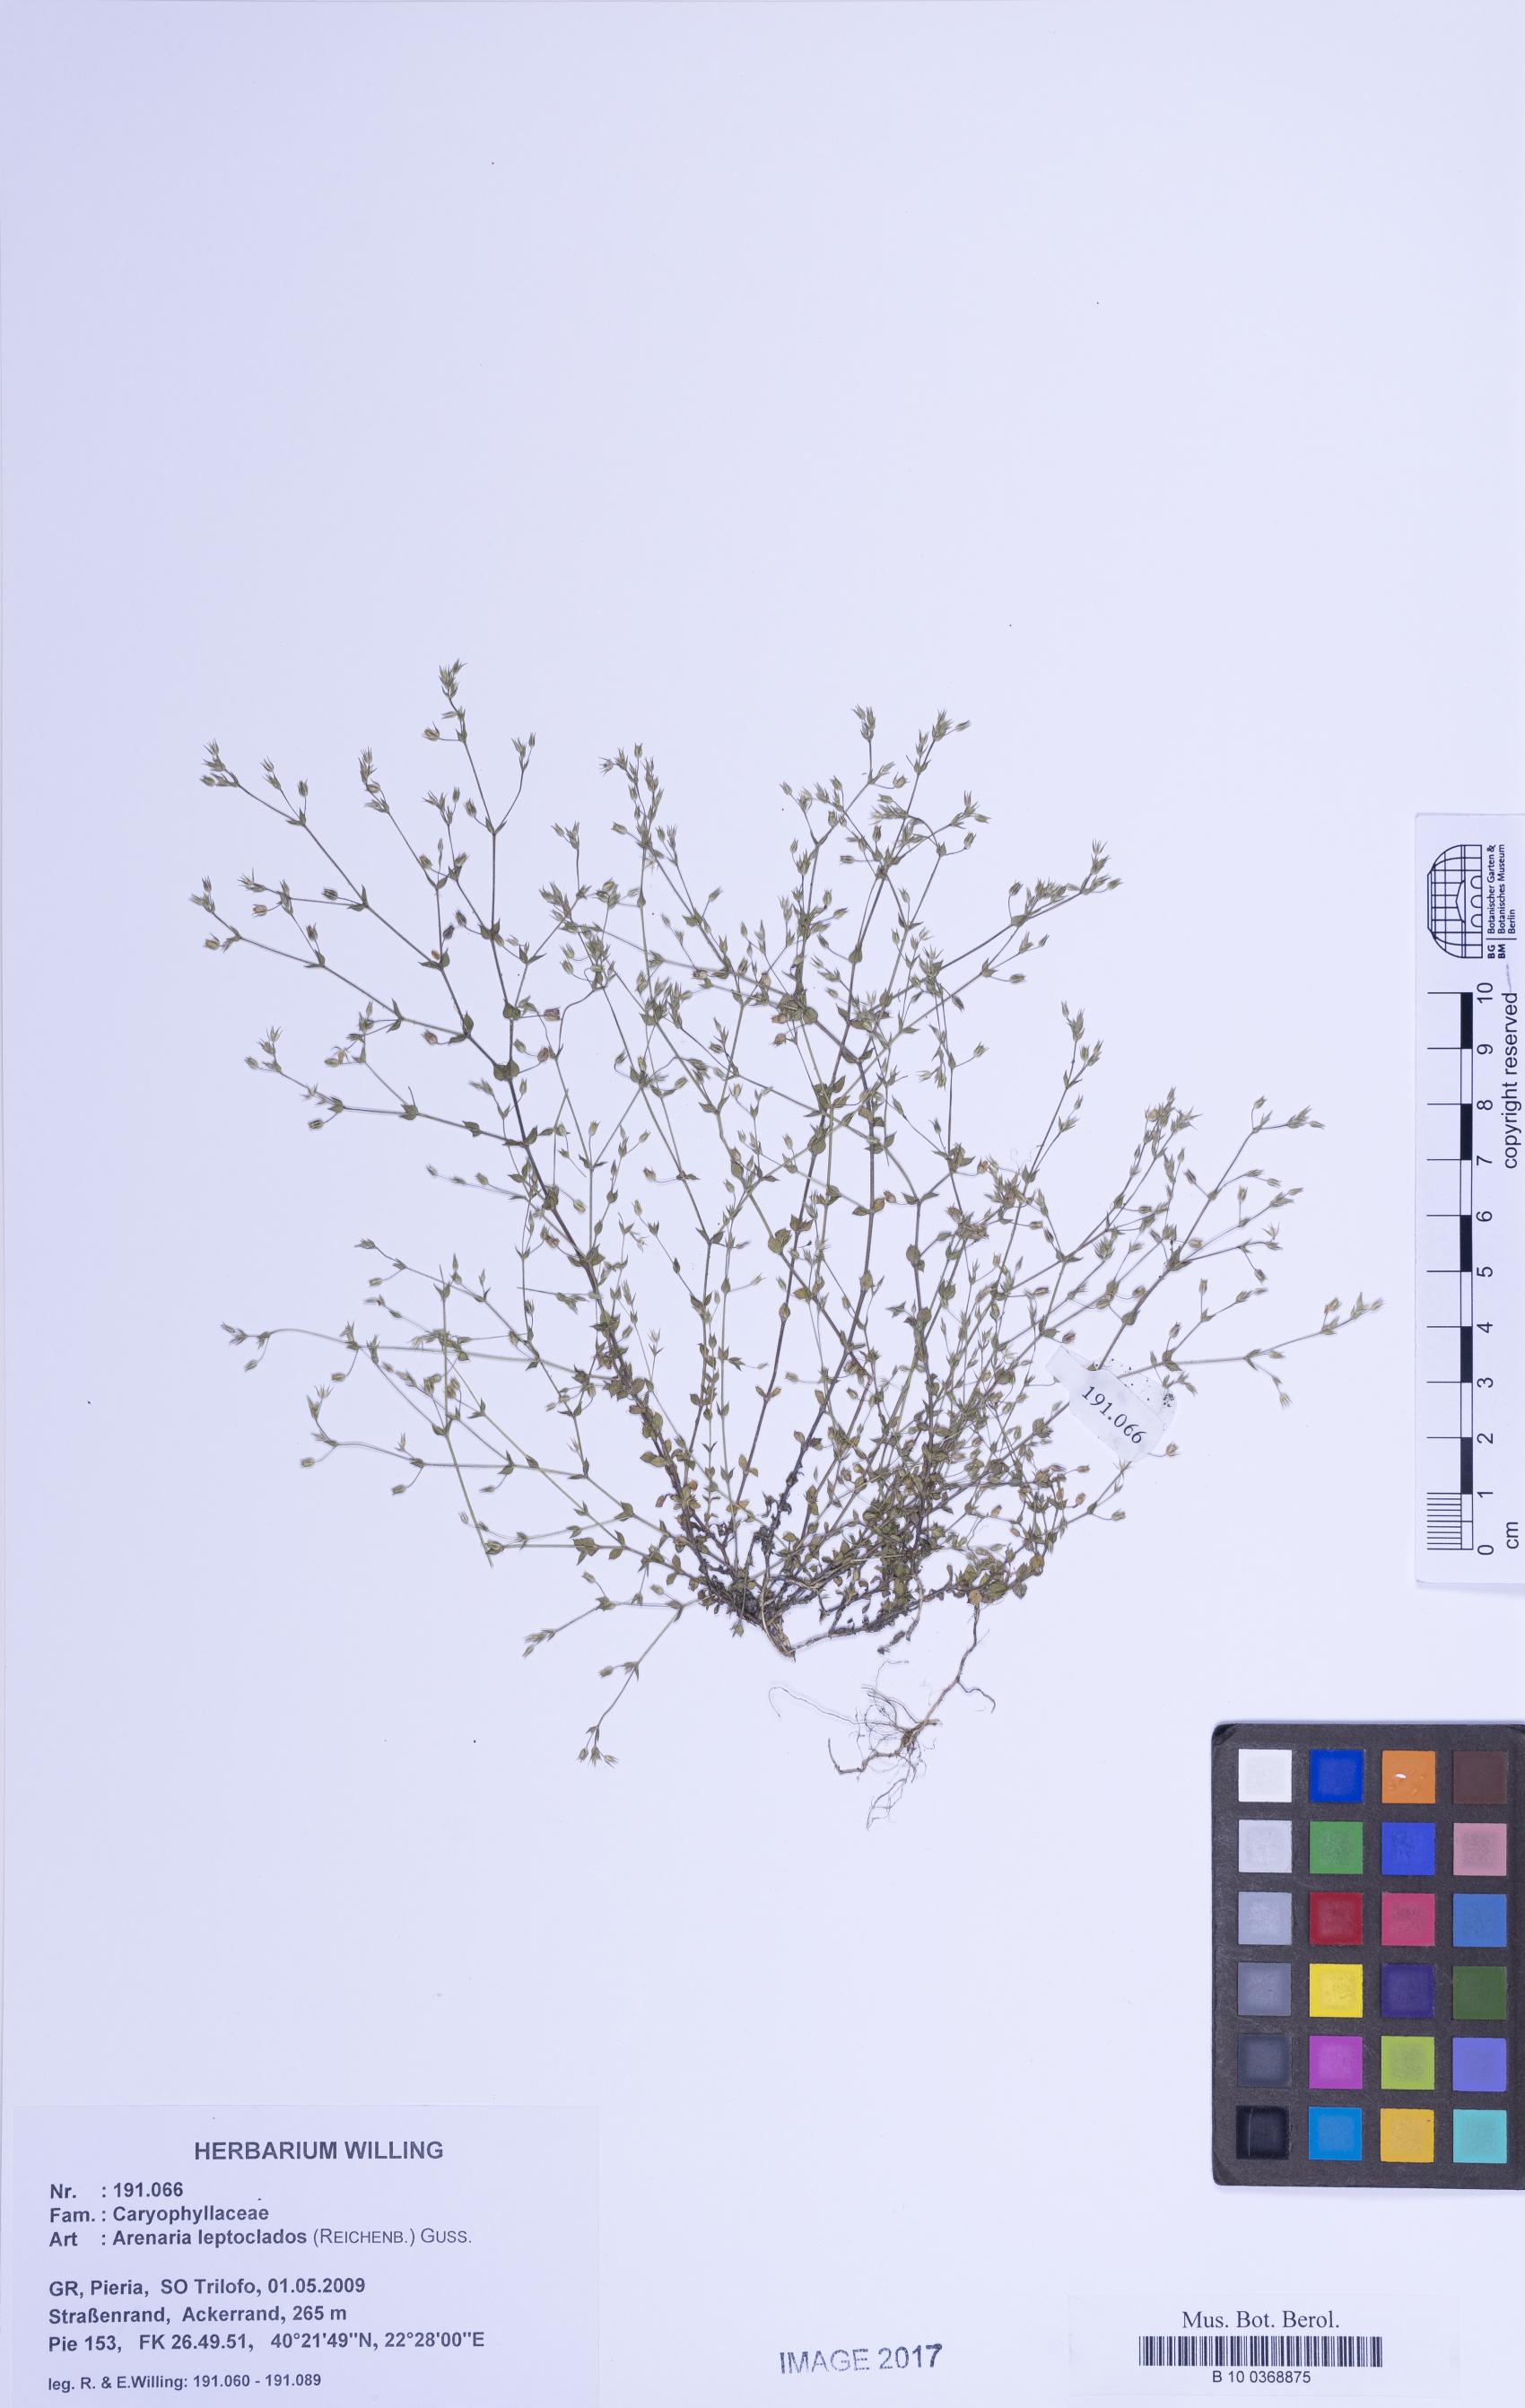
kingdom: Plantae
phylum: Tracheophyta
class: Magnoliopsida
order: Caryophyllales
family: Caryophyllaceae
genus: Arenaria
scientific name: Arenaria leptoclados
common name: Thyme-leaved sandwort
